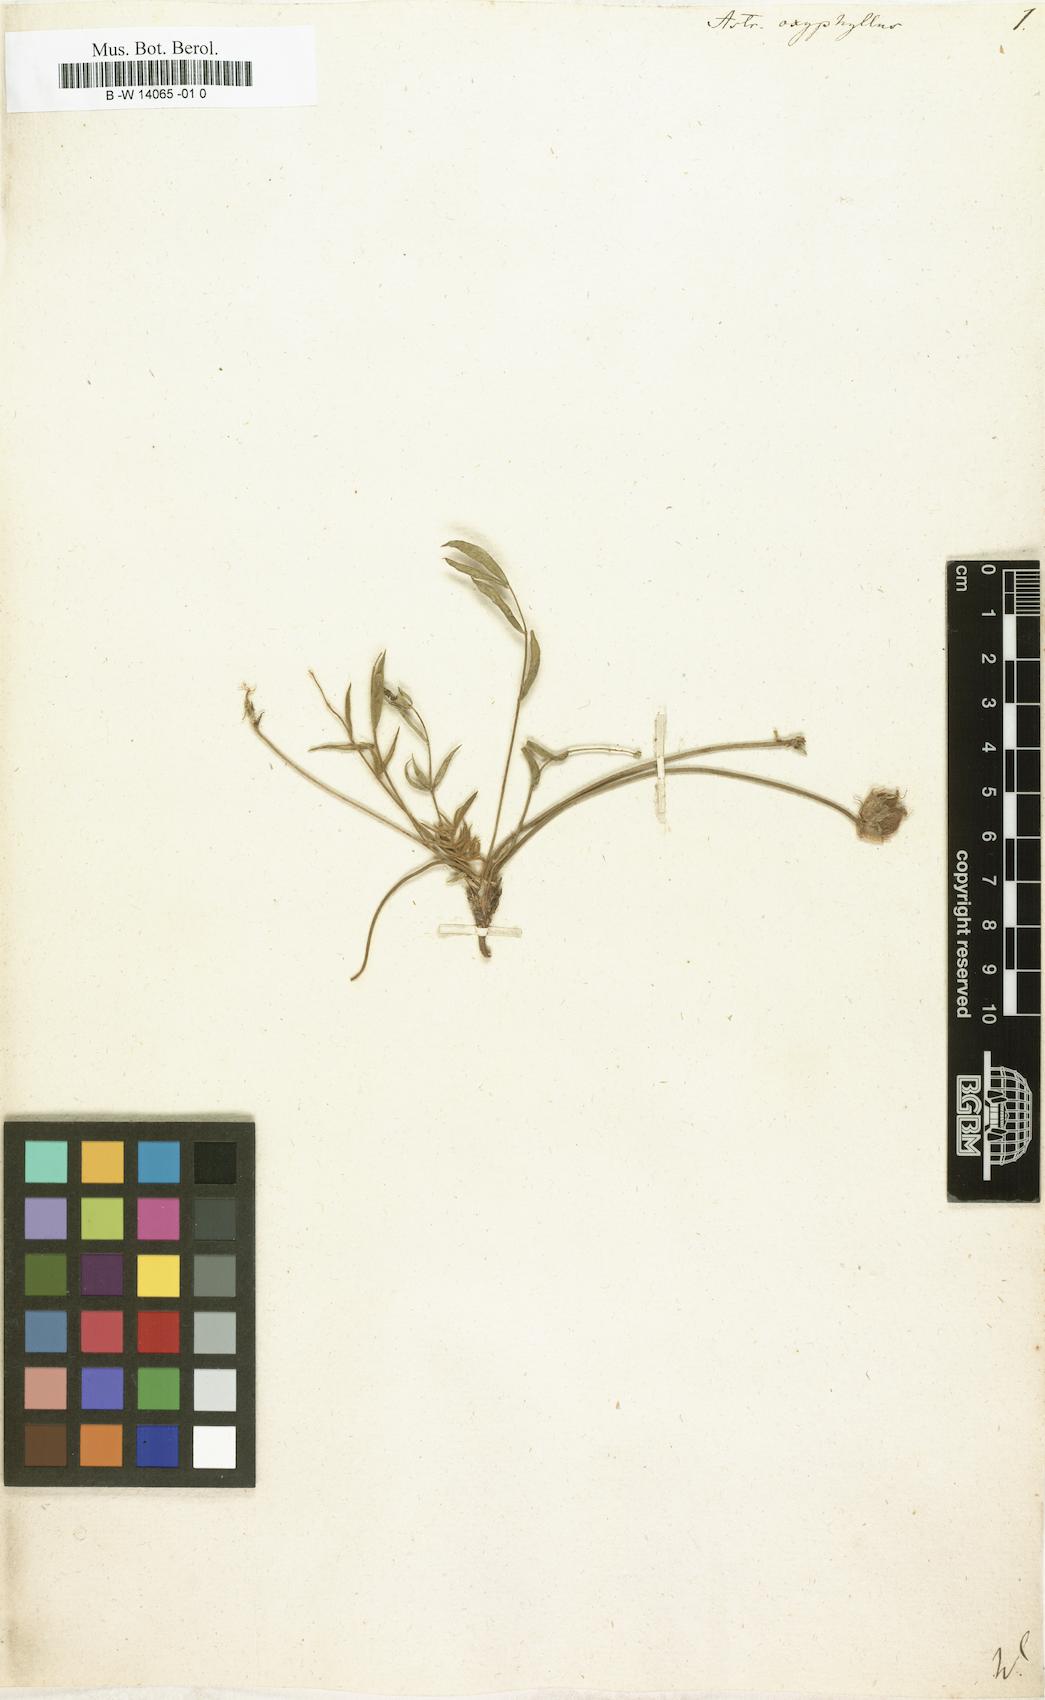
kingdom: Plantae
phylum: Tracheophyta
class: Magnoliopsida
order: Fabales
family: Fabaceae
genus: Oxytropis
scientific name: Oxytropis oxyphylla
